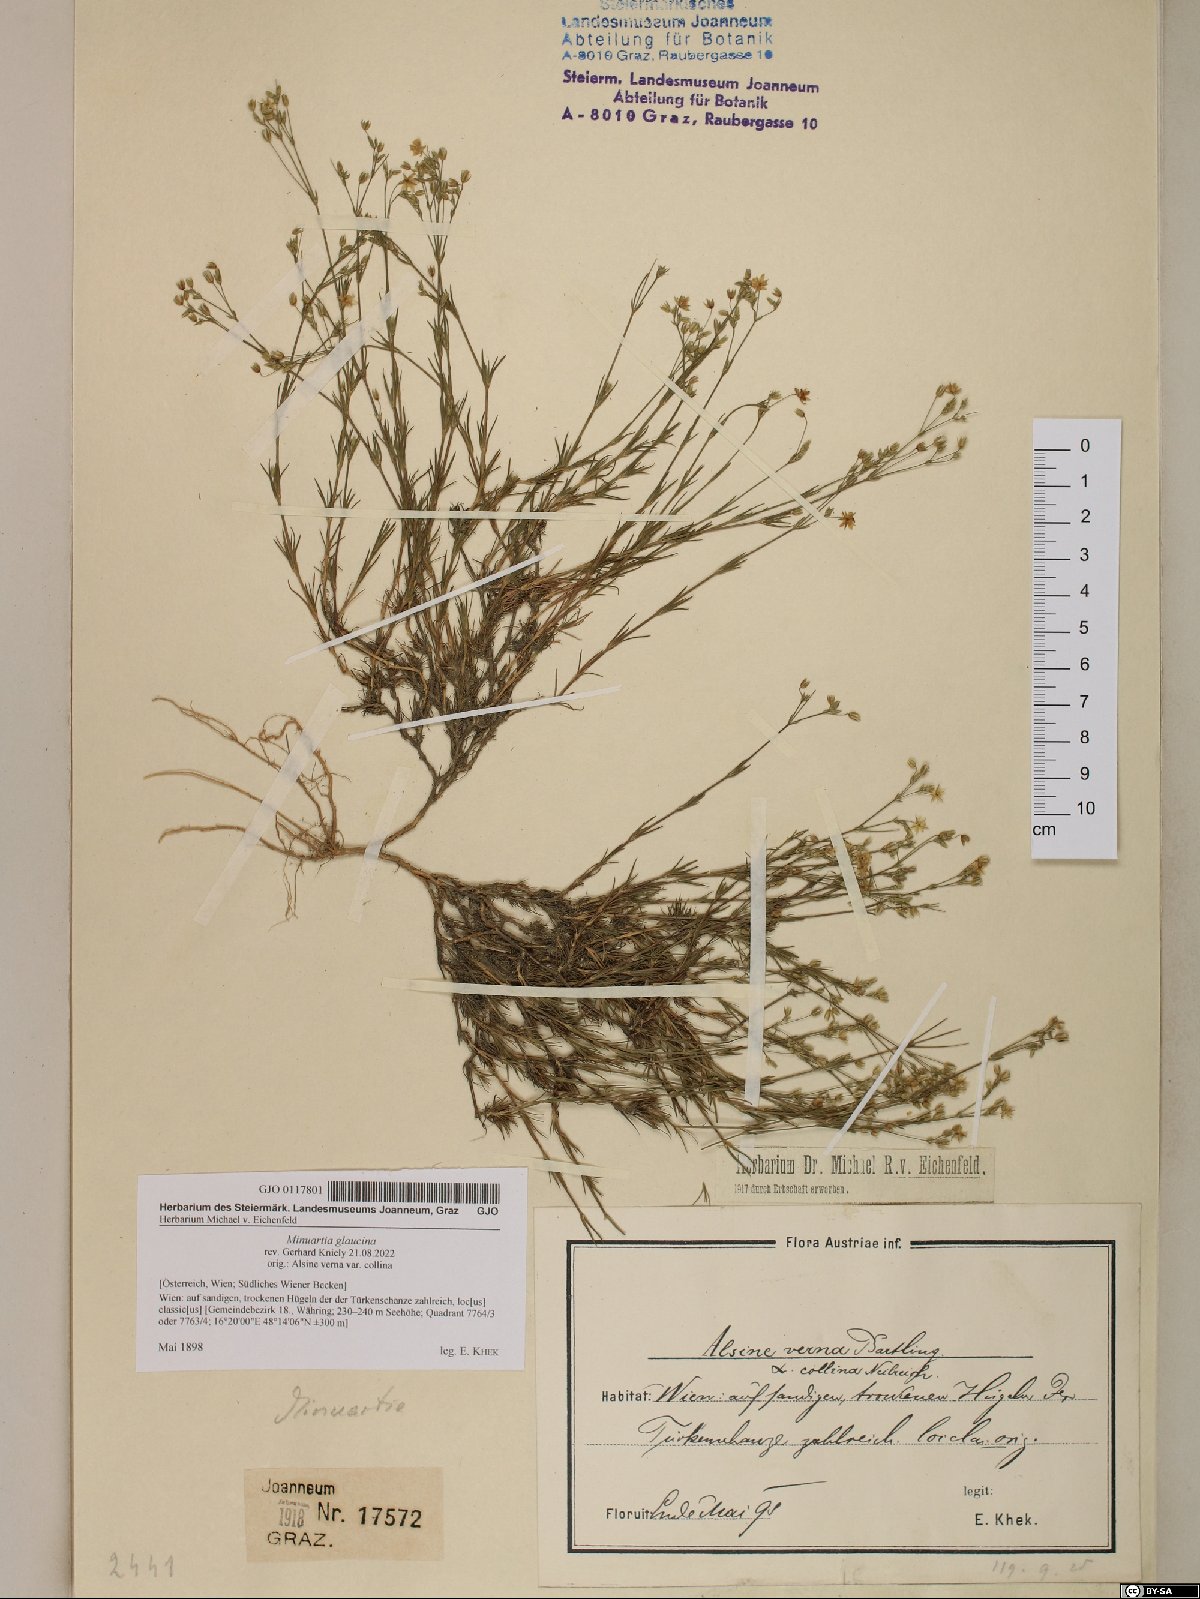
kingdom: Plantae
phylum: Tracheophyta
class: Magnoliopsida
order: Caryophyllales
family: Caryophyllaceae
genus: Sabulina
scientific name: Sabulina glaucina
